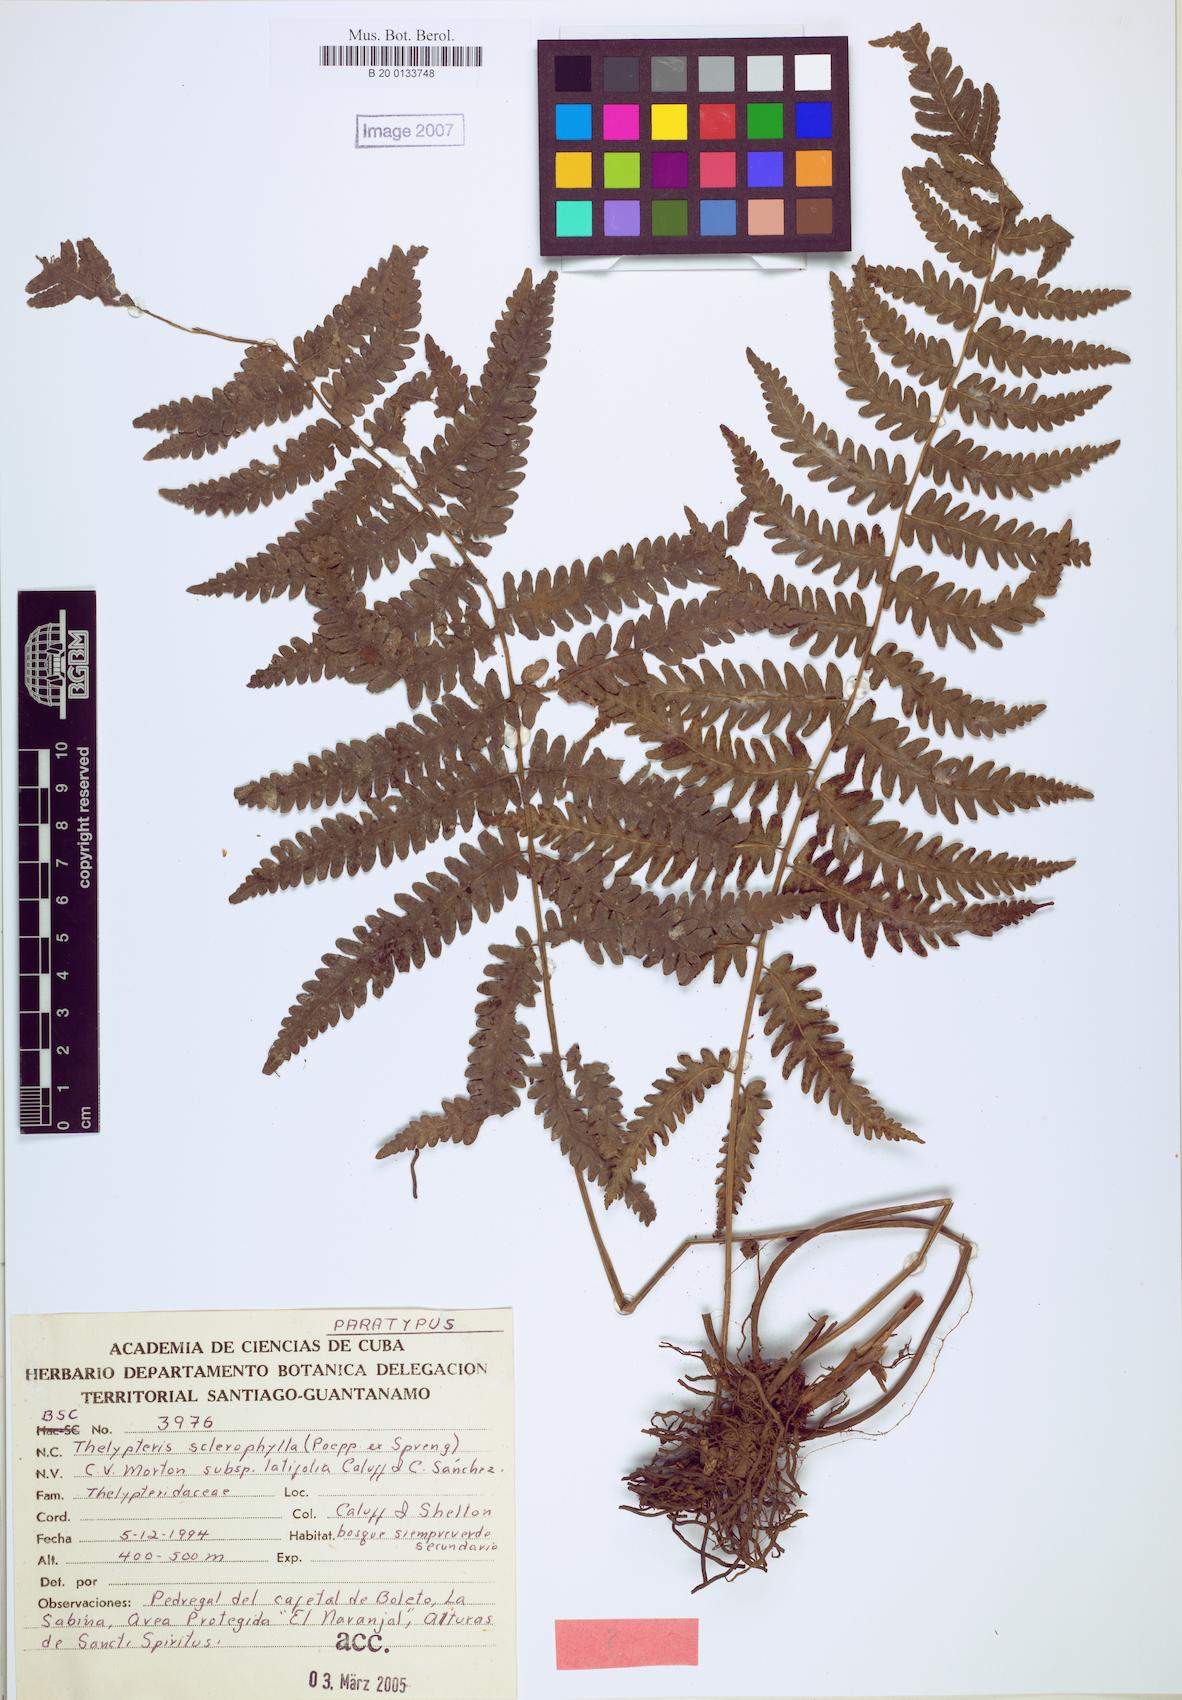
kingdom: Plantae
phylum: Tracheophyta
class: Polypodiopsida
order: Polypodiales
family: Thelypteridaceae
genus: Goniopteris
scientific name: Goniopteris sclerophylla
